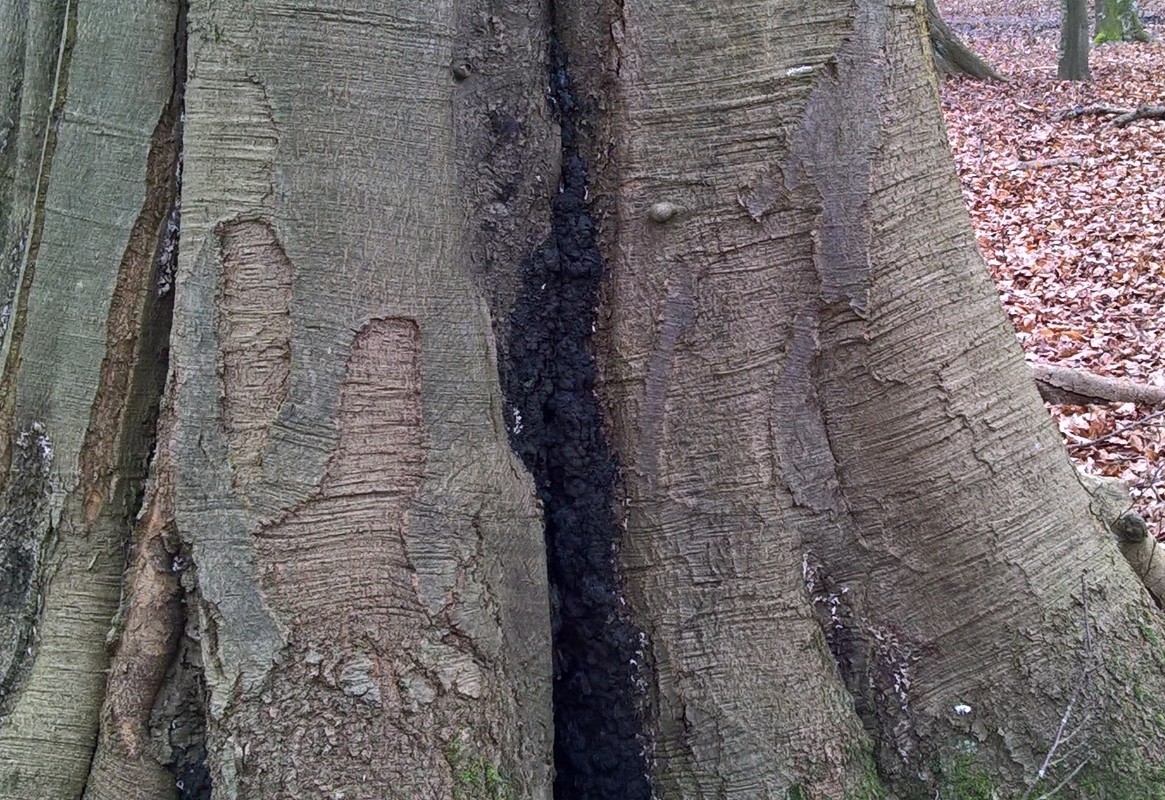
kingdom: Fungi
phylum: Ascomycota
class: Sordariomycetes
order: Xylariales
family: Xylariaceae
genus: Kretzschmaria
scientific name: Kretzschmaria deusta
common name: stor kulsvamp
